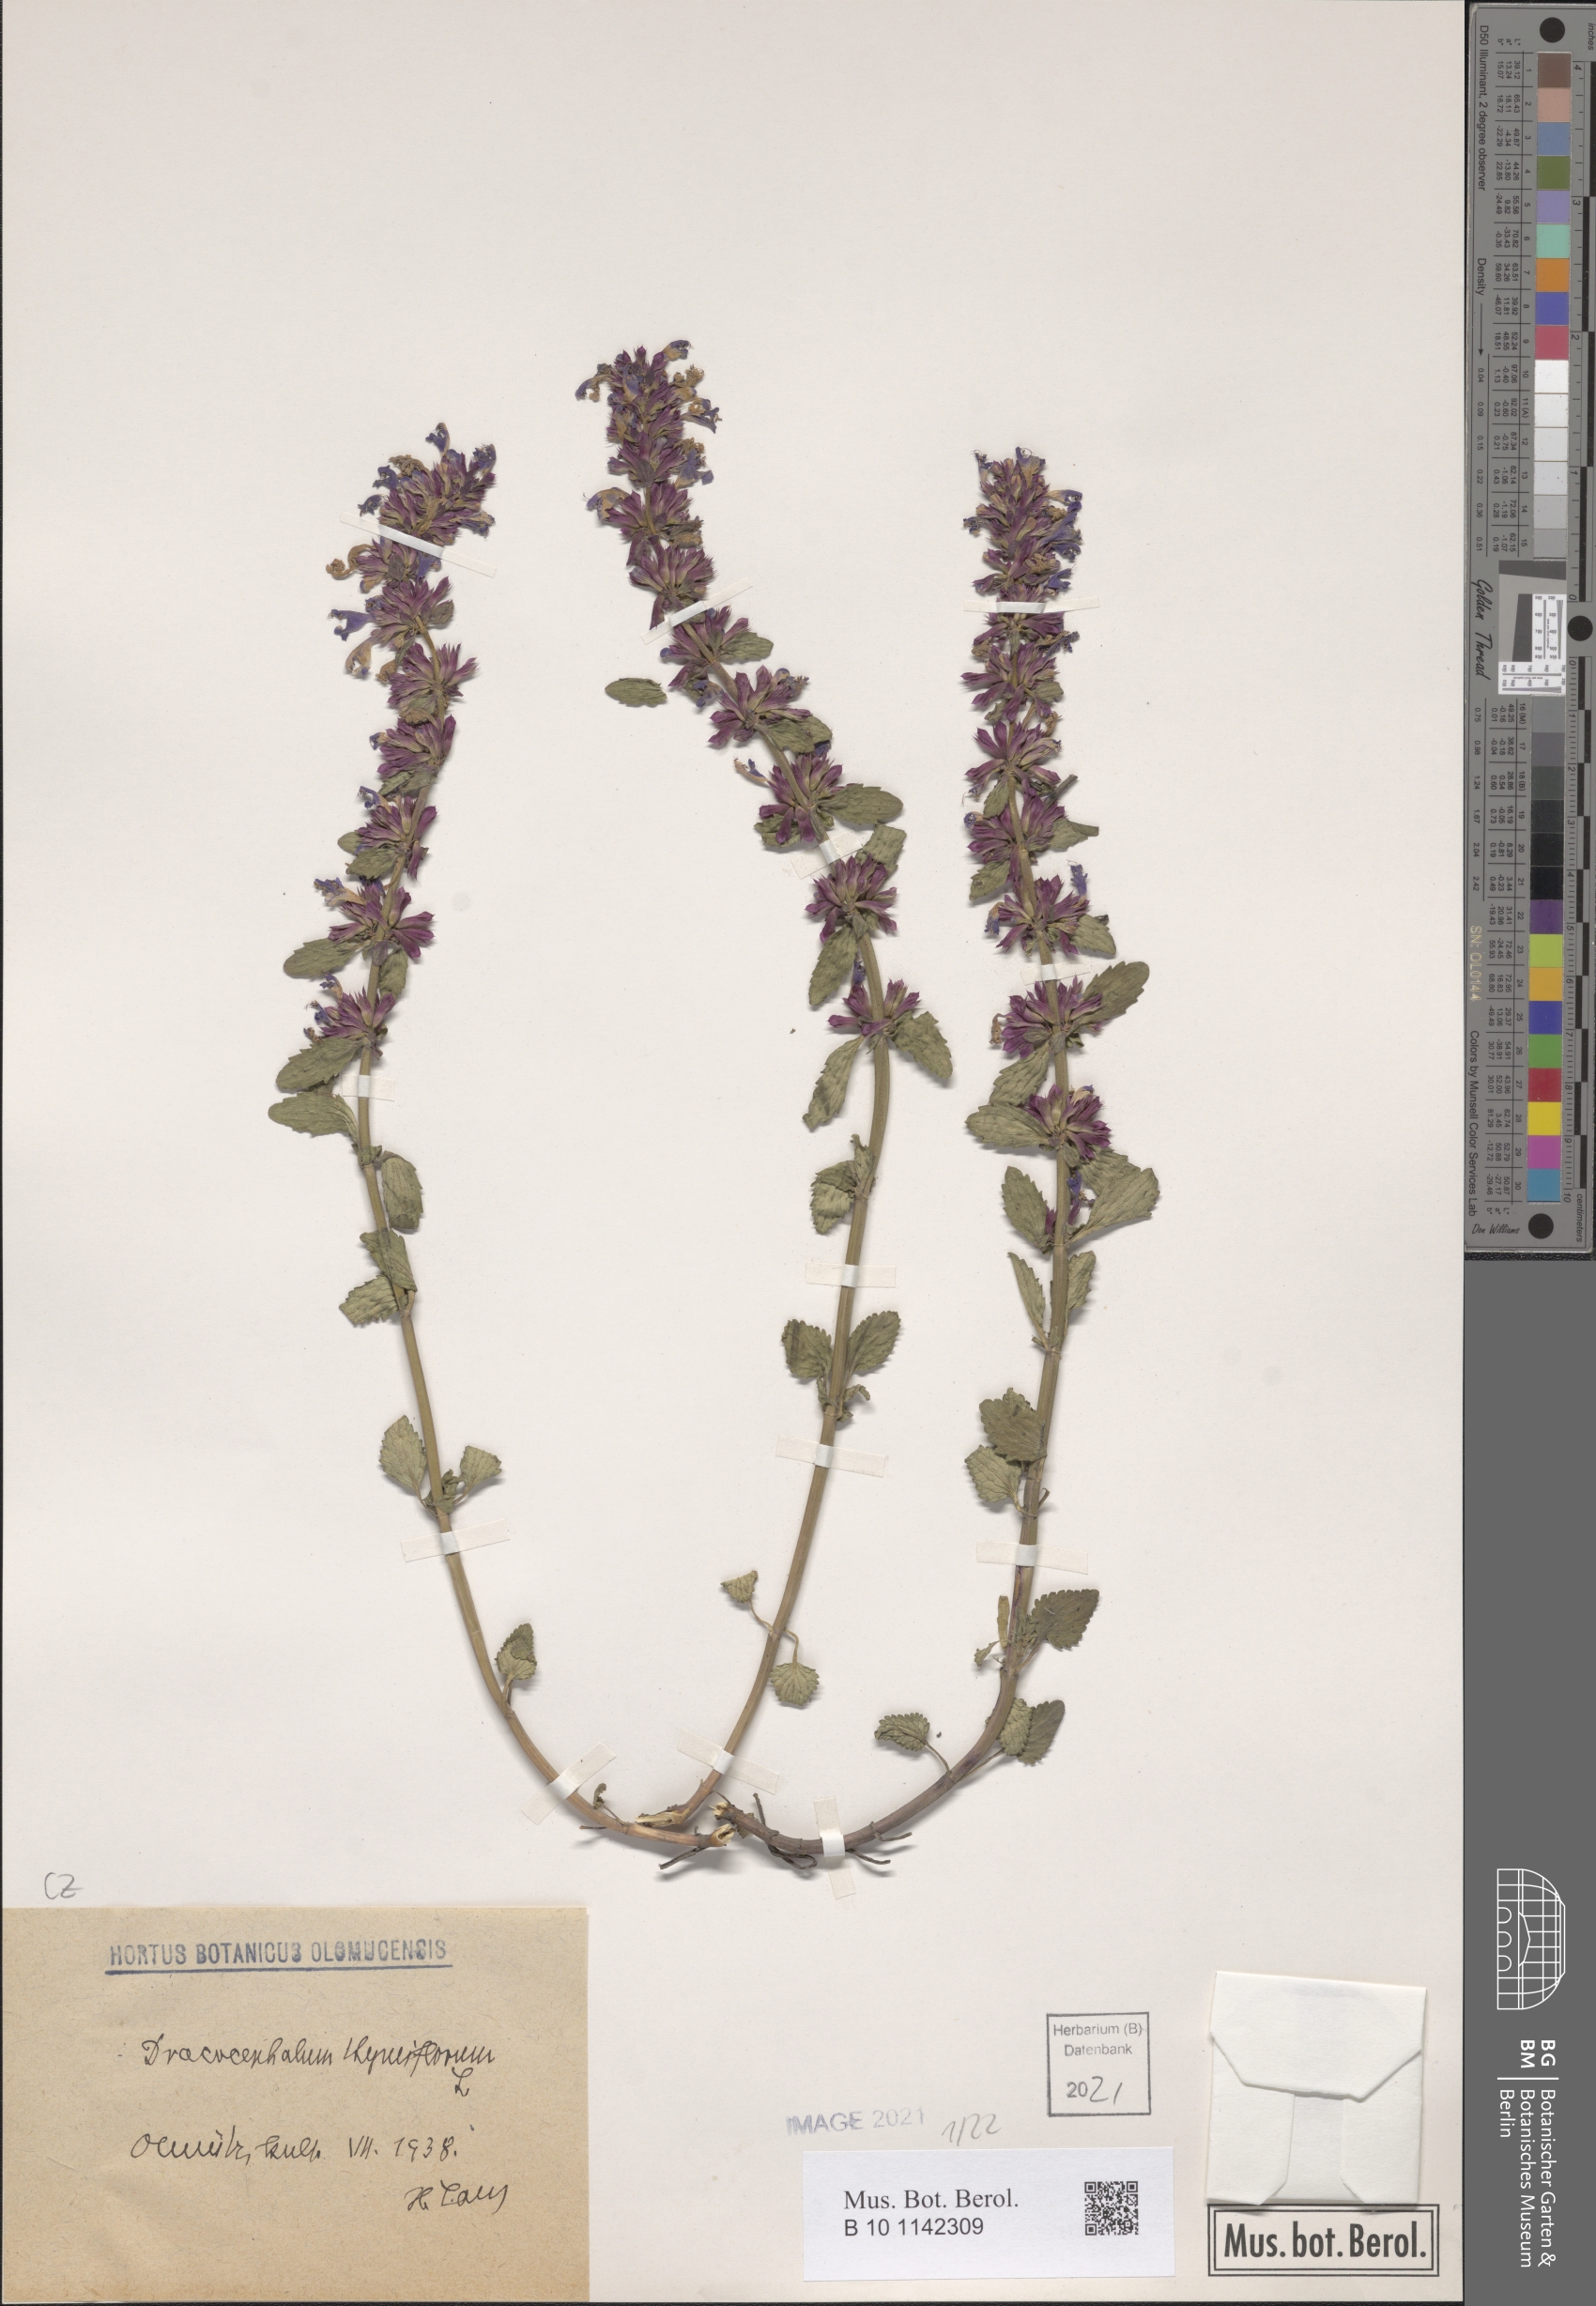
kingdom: Plantae
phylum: Tracheophyta
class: Magnoliopsida
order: Lamiales
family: Lamiaceae
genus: Dracocephalum
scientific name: Dracocephalum thymiflorum
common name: Thymeleaf dragonhead
